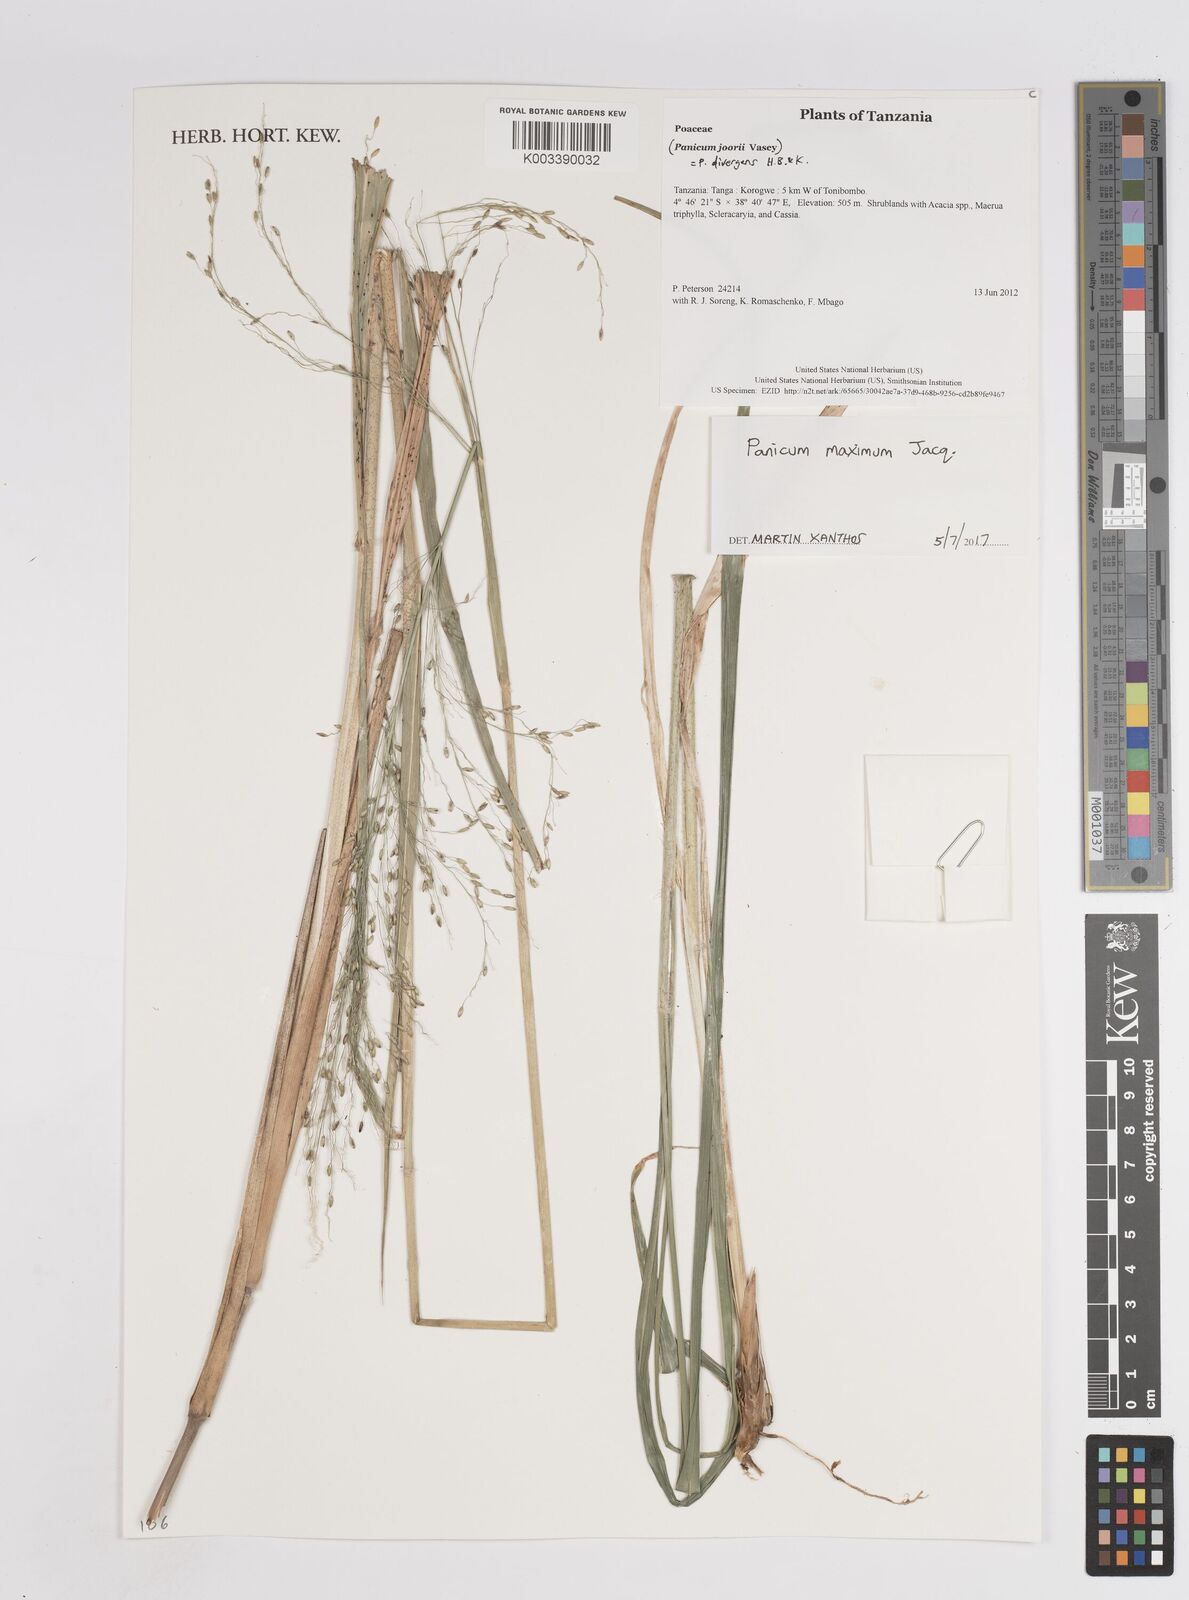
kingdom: Plantae
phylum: Tracheophyta
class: Liliopsida
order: Poales
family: Poaceae
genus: Megathyrsus
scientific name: Megathyrsus maximus
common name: Guineagrass
